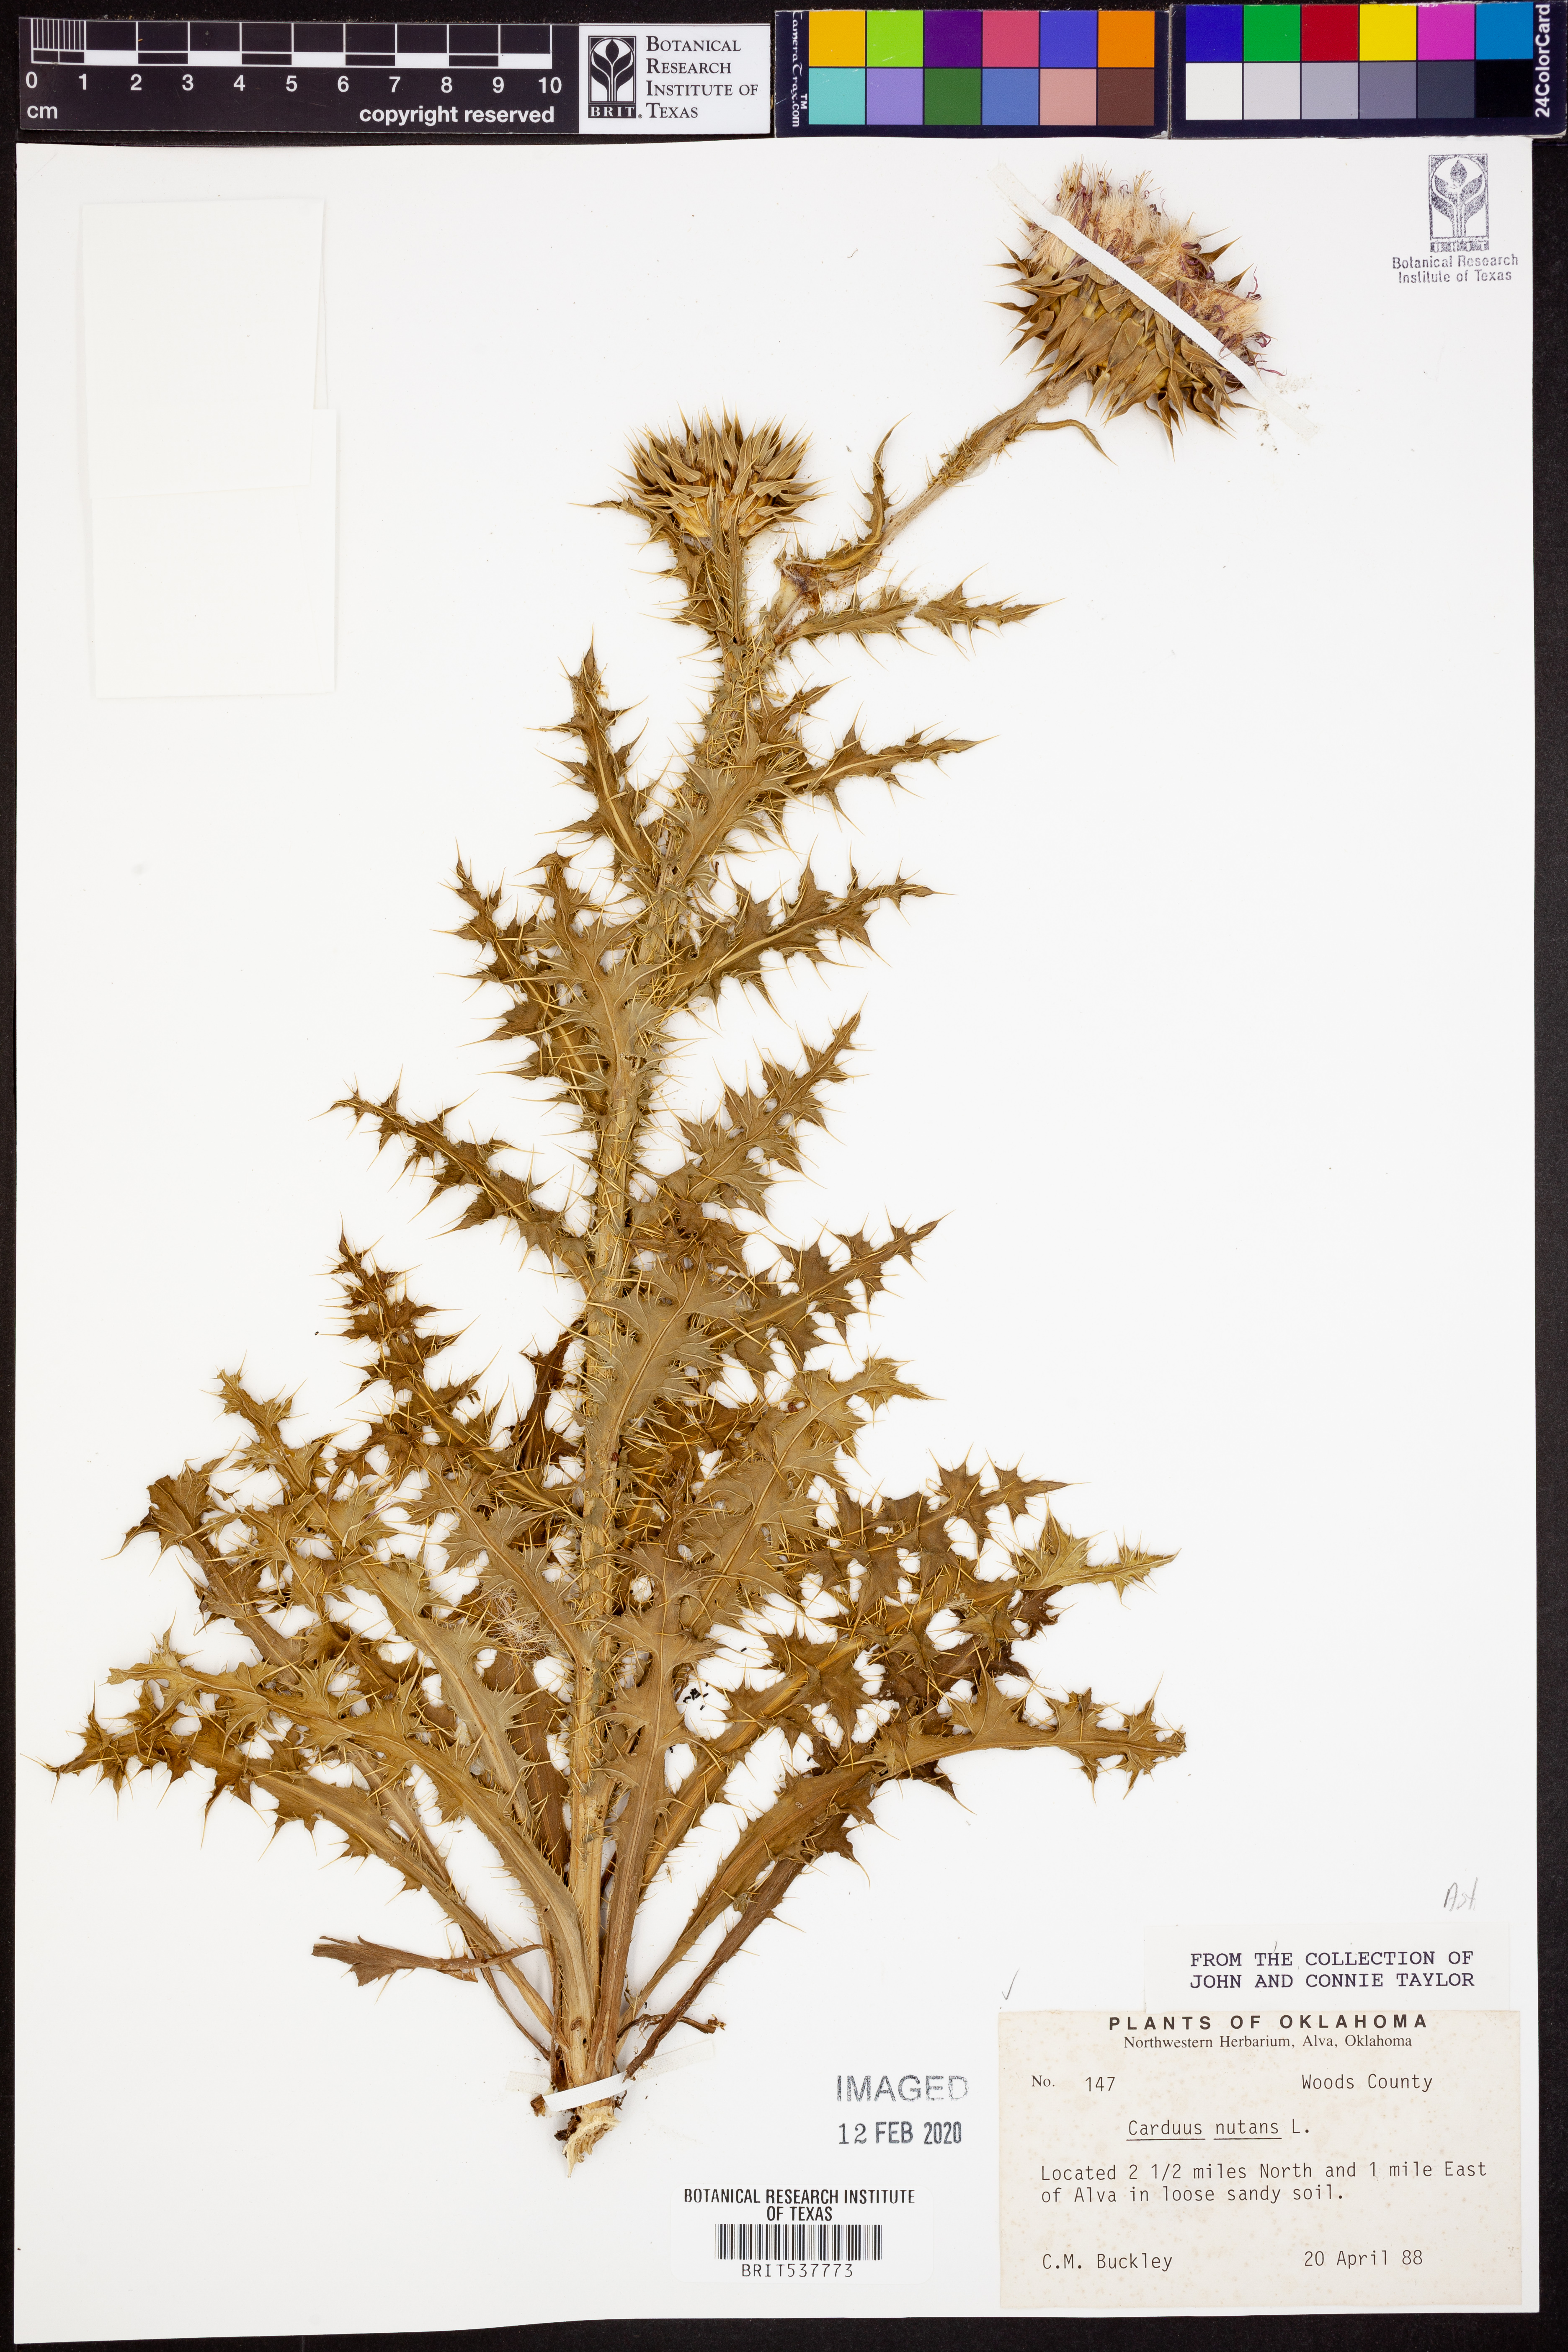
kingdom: Plantae
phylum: Tracheophyta
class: Magnoliopsida
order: Asterales
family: Asteraceae
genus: Carduus
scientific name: Carduus nutans
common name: Musk thistle
